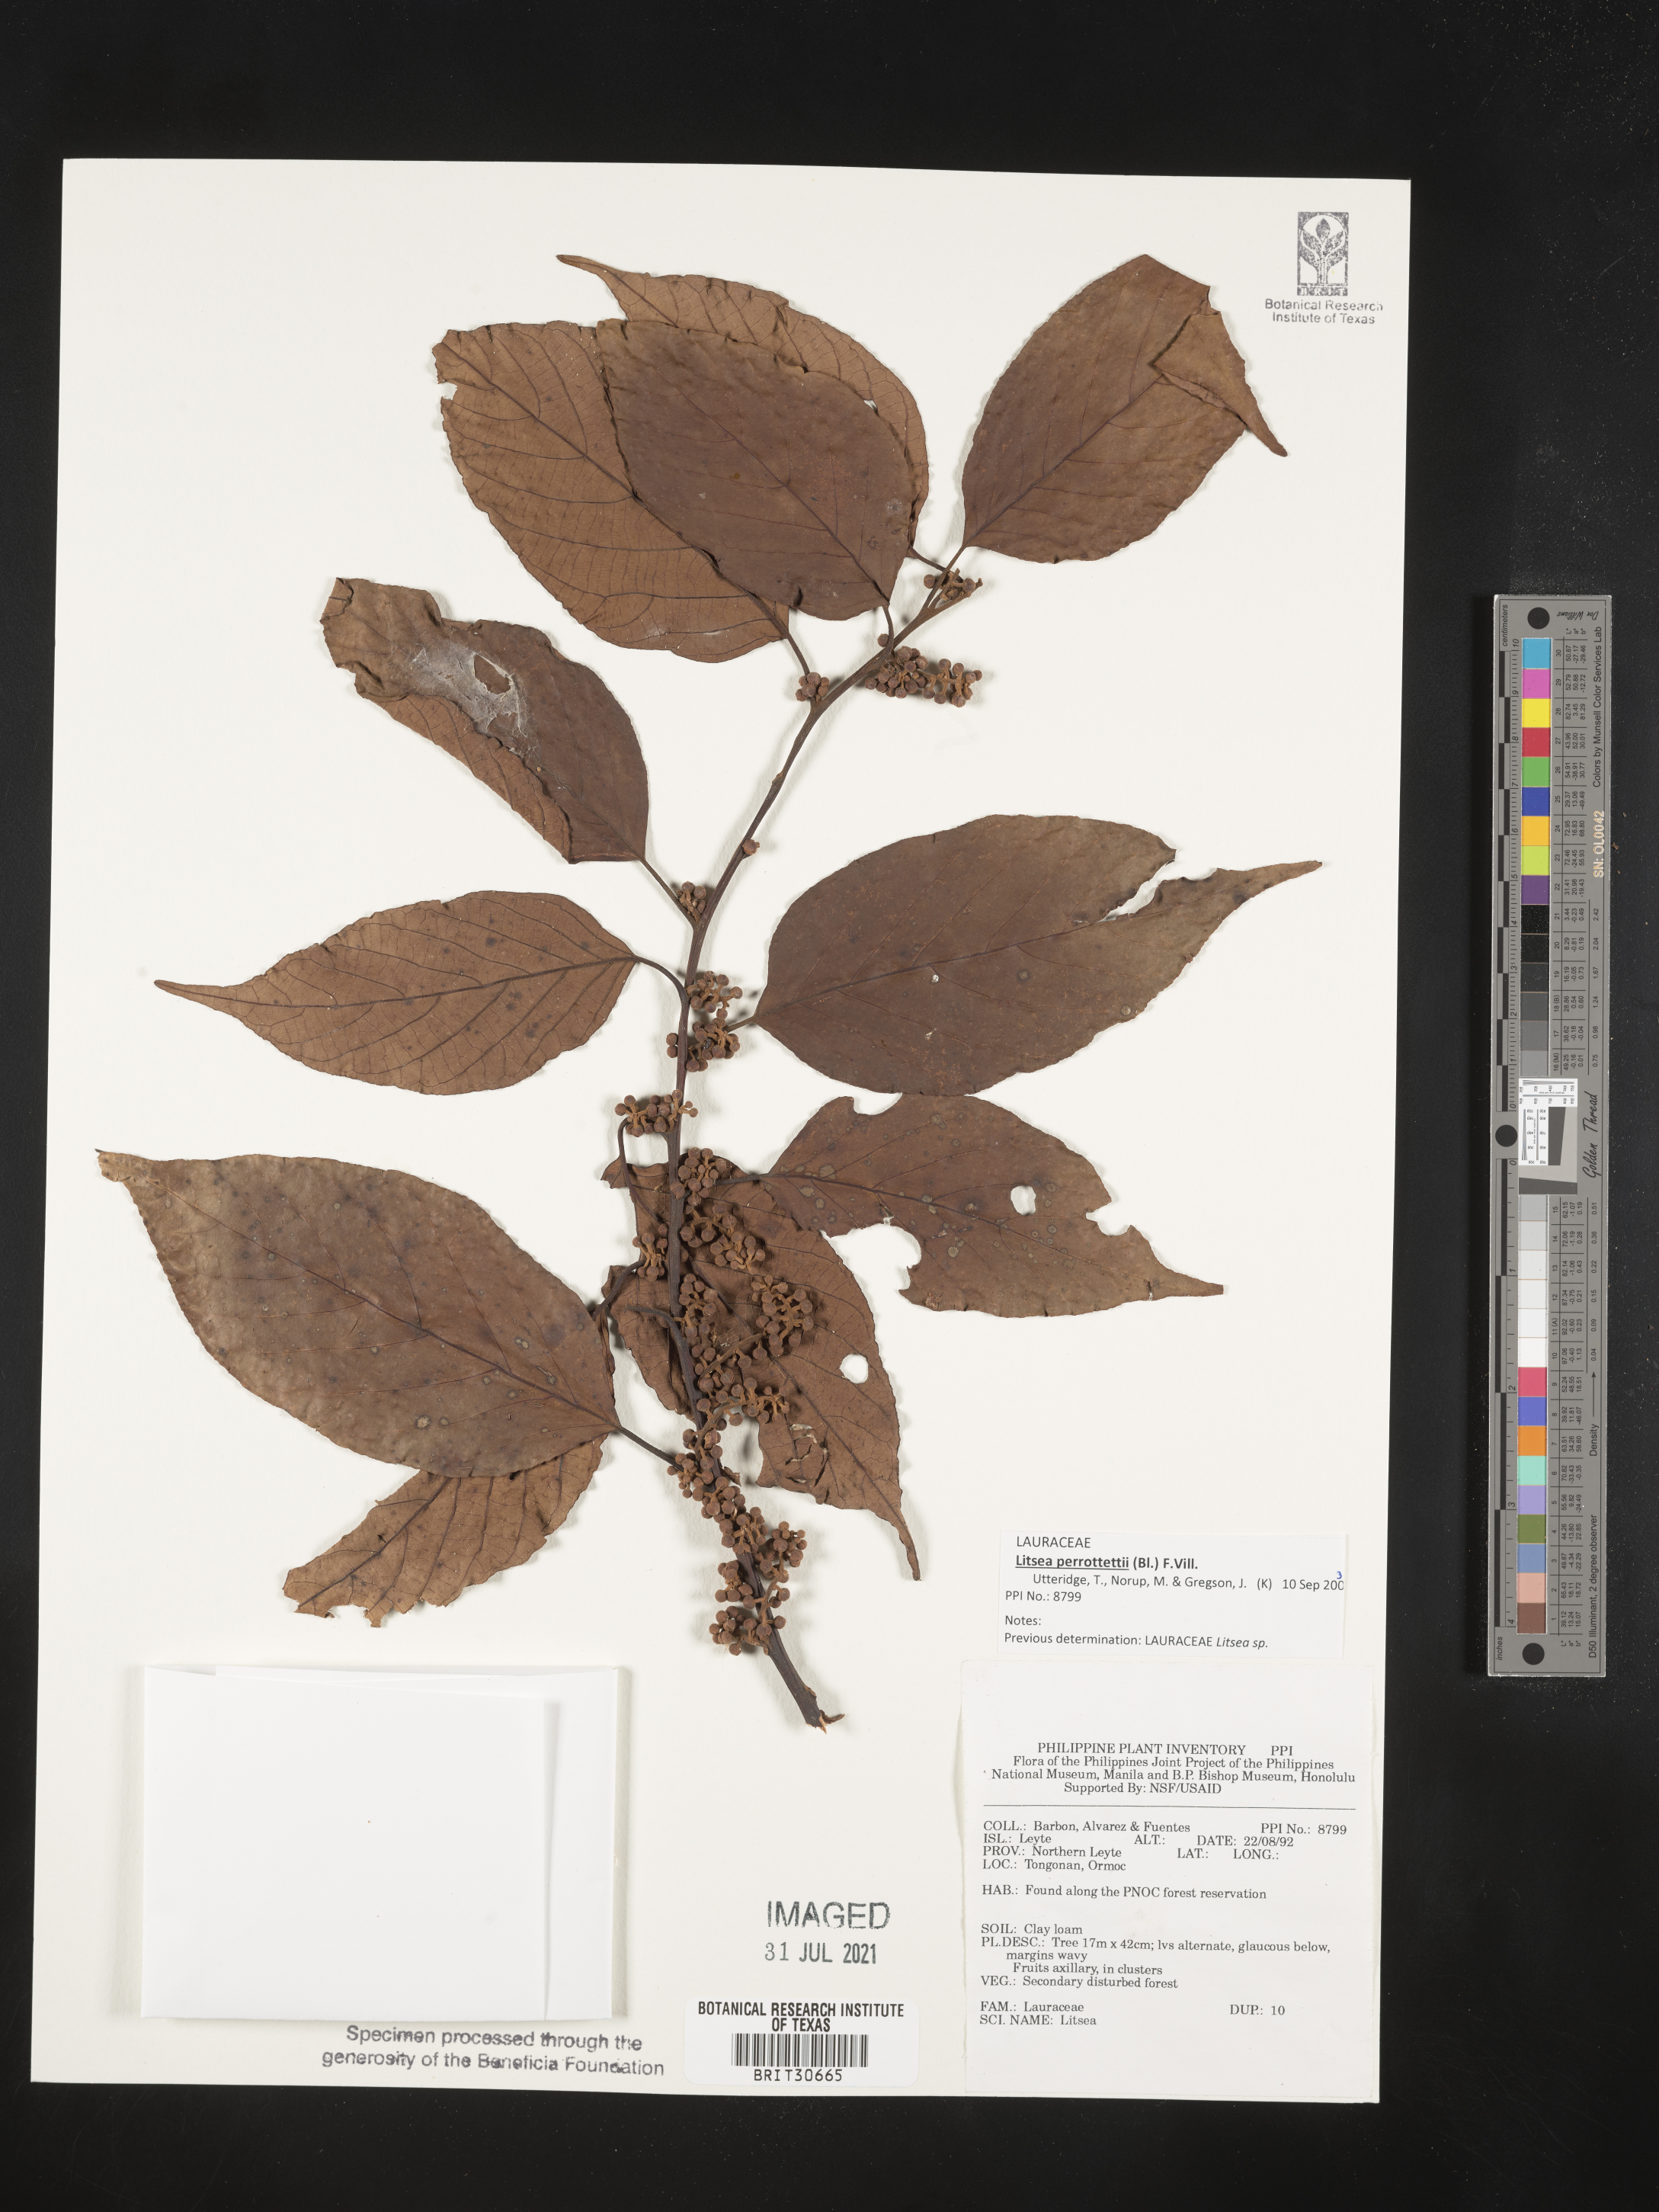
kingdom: Plantae
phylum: Tracheophyta
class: Magnoliopsida
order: Laurales
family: Lauraceae
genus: Litsea
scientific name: Litsea
